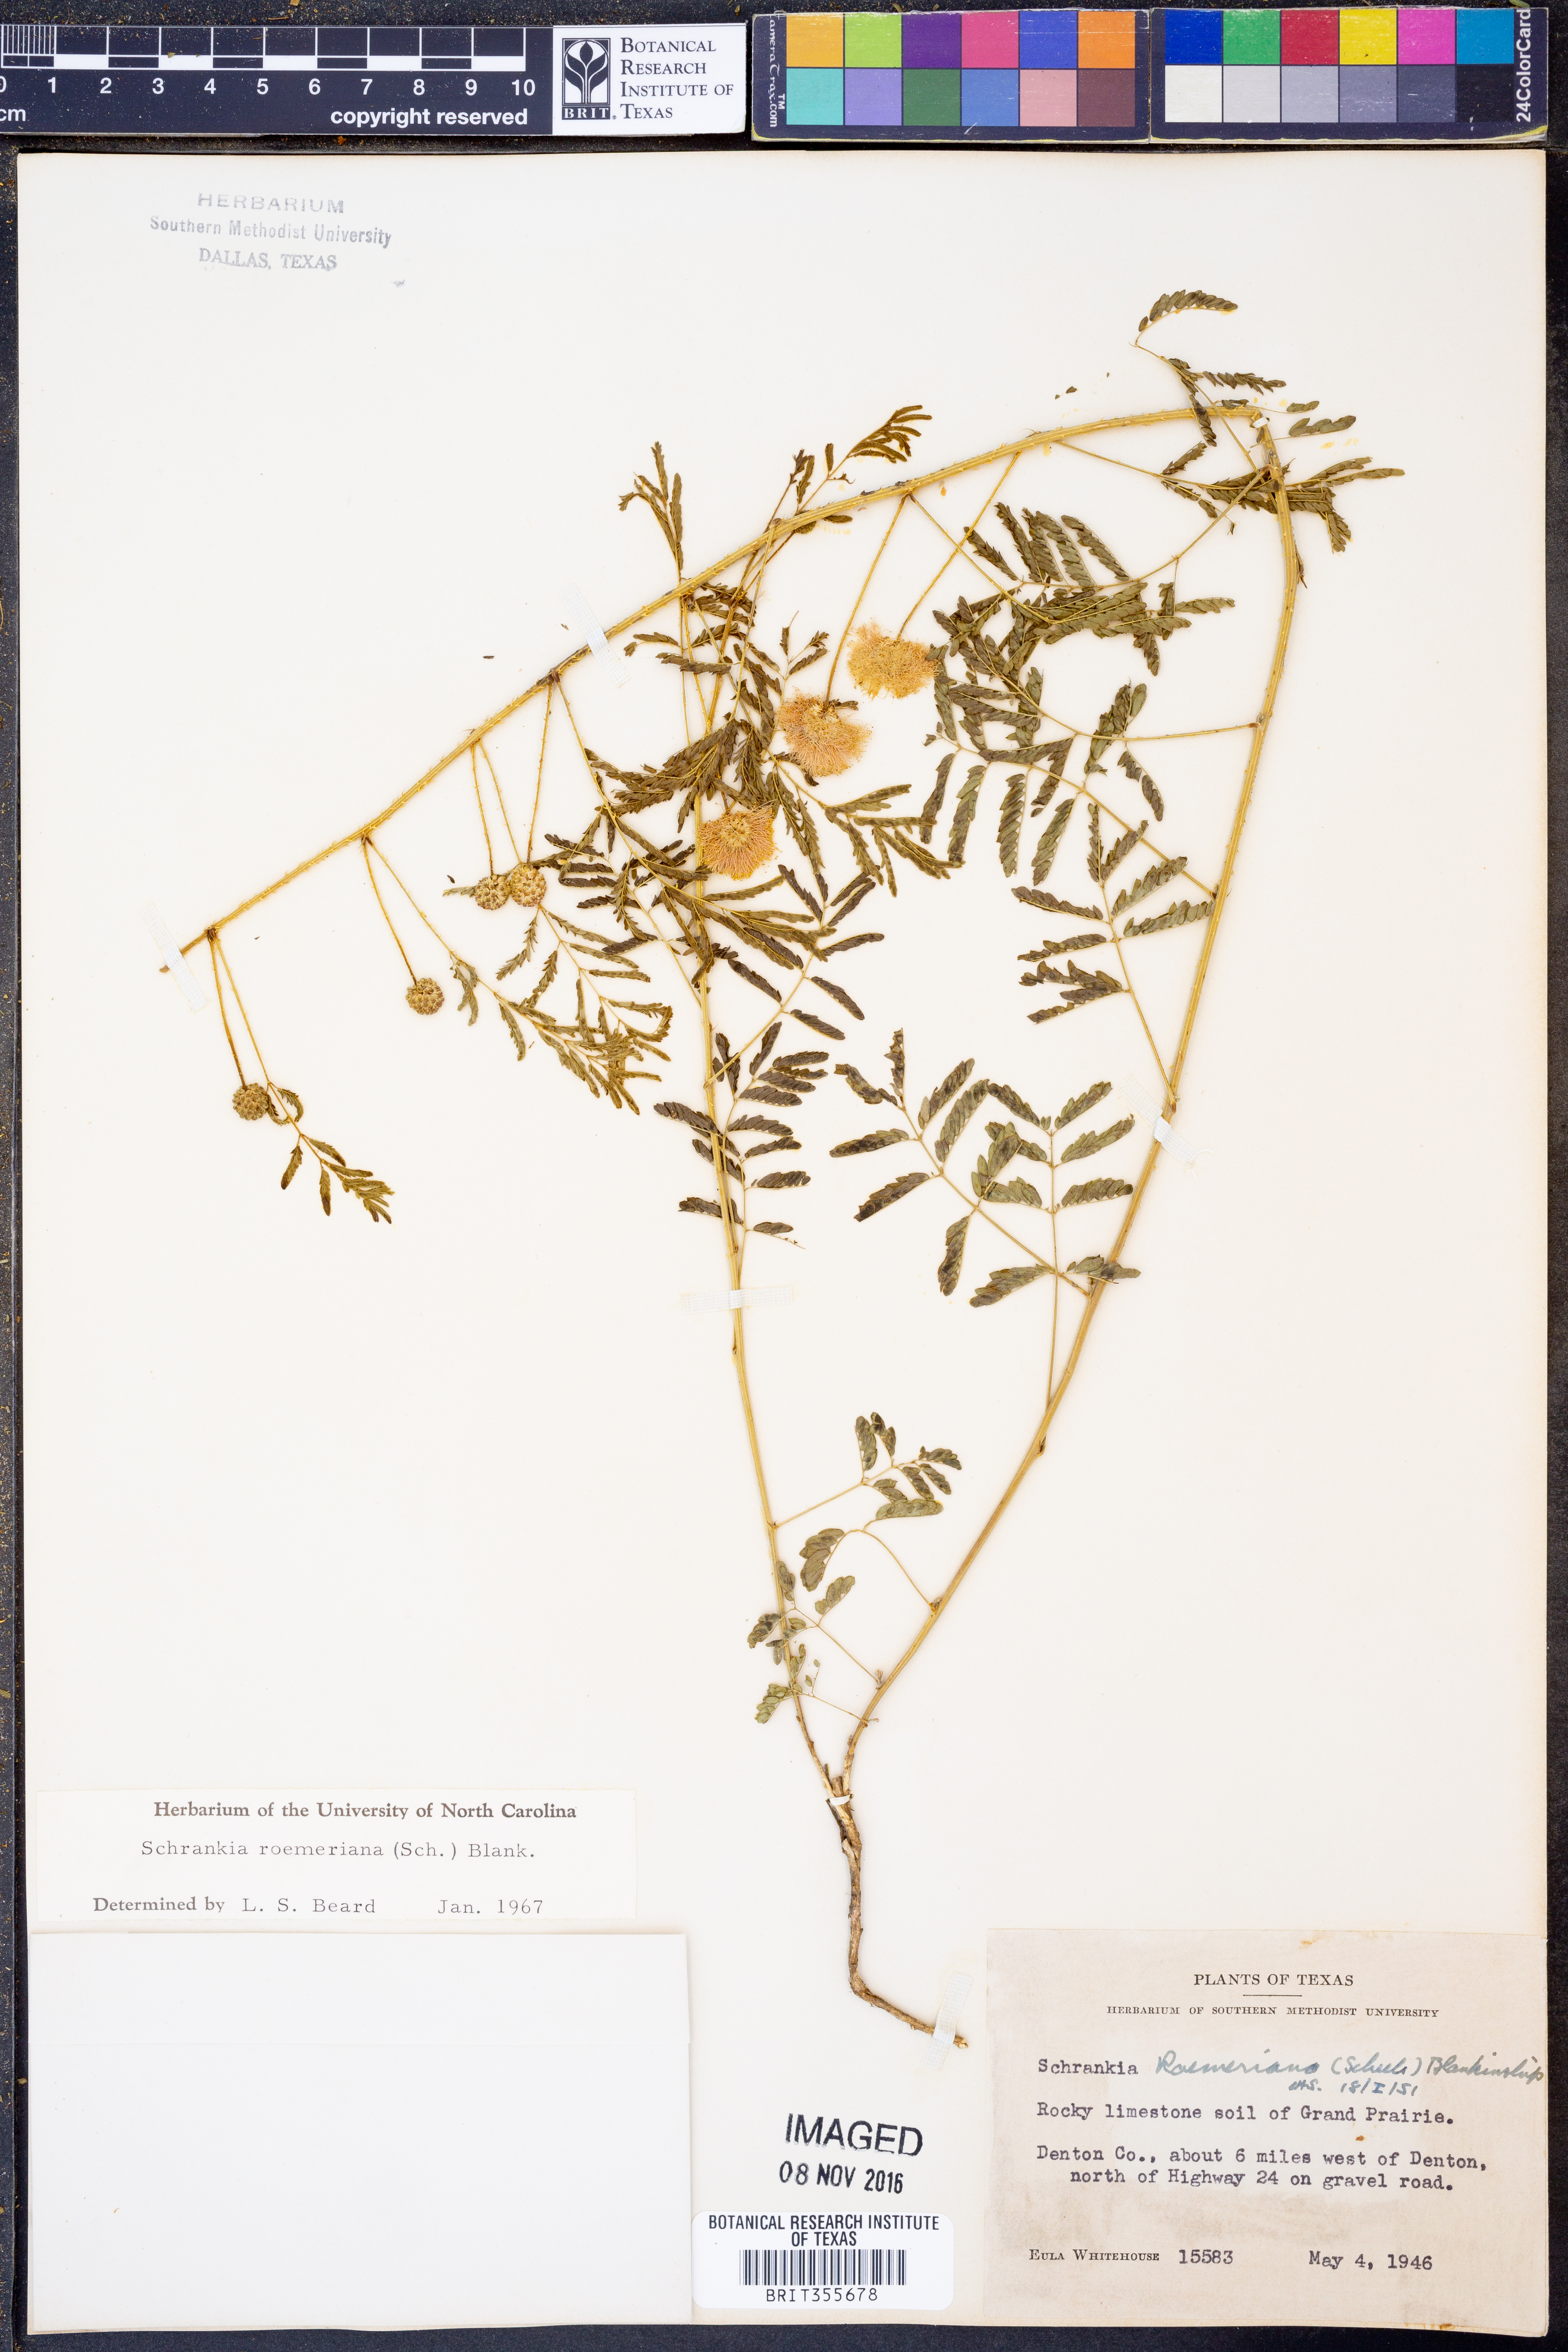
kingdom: Plantae
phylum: Tracheophyta
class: Magnoliopsida
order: Fabales
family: Fabaceae
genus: Mimosa
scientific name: Mimosa quadrivalvis
